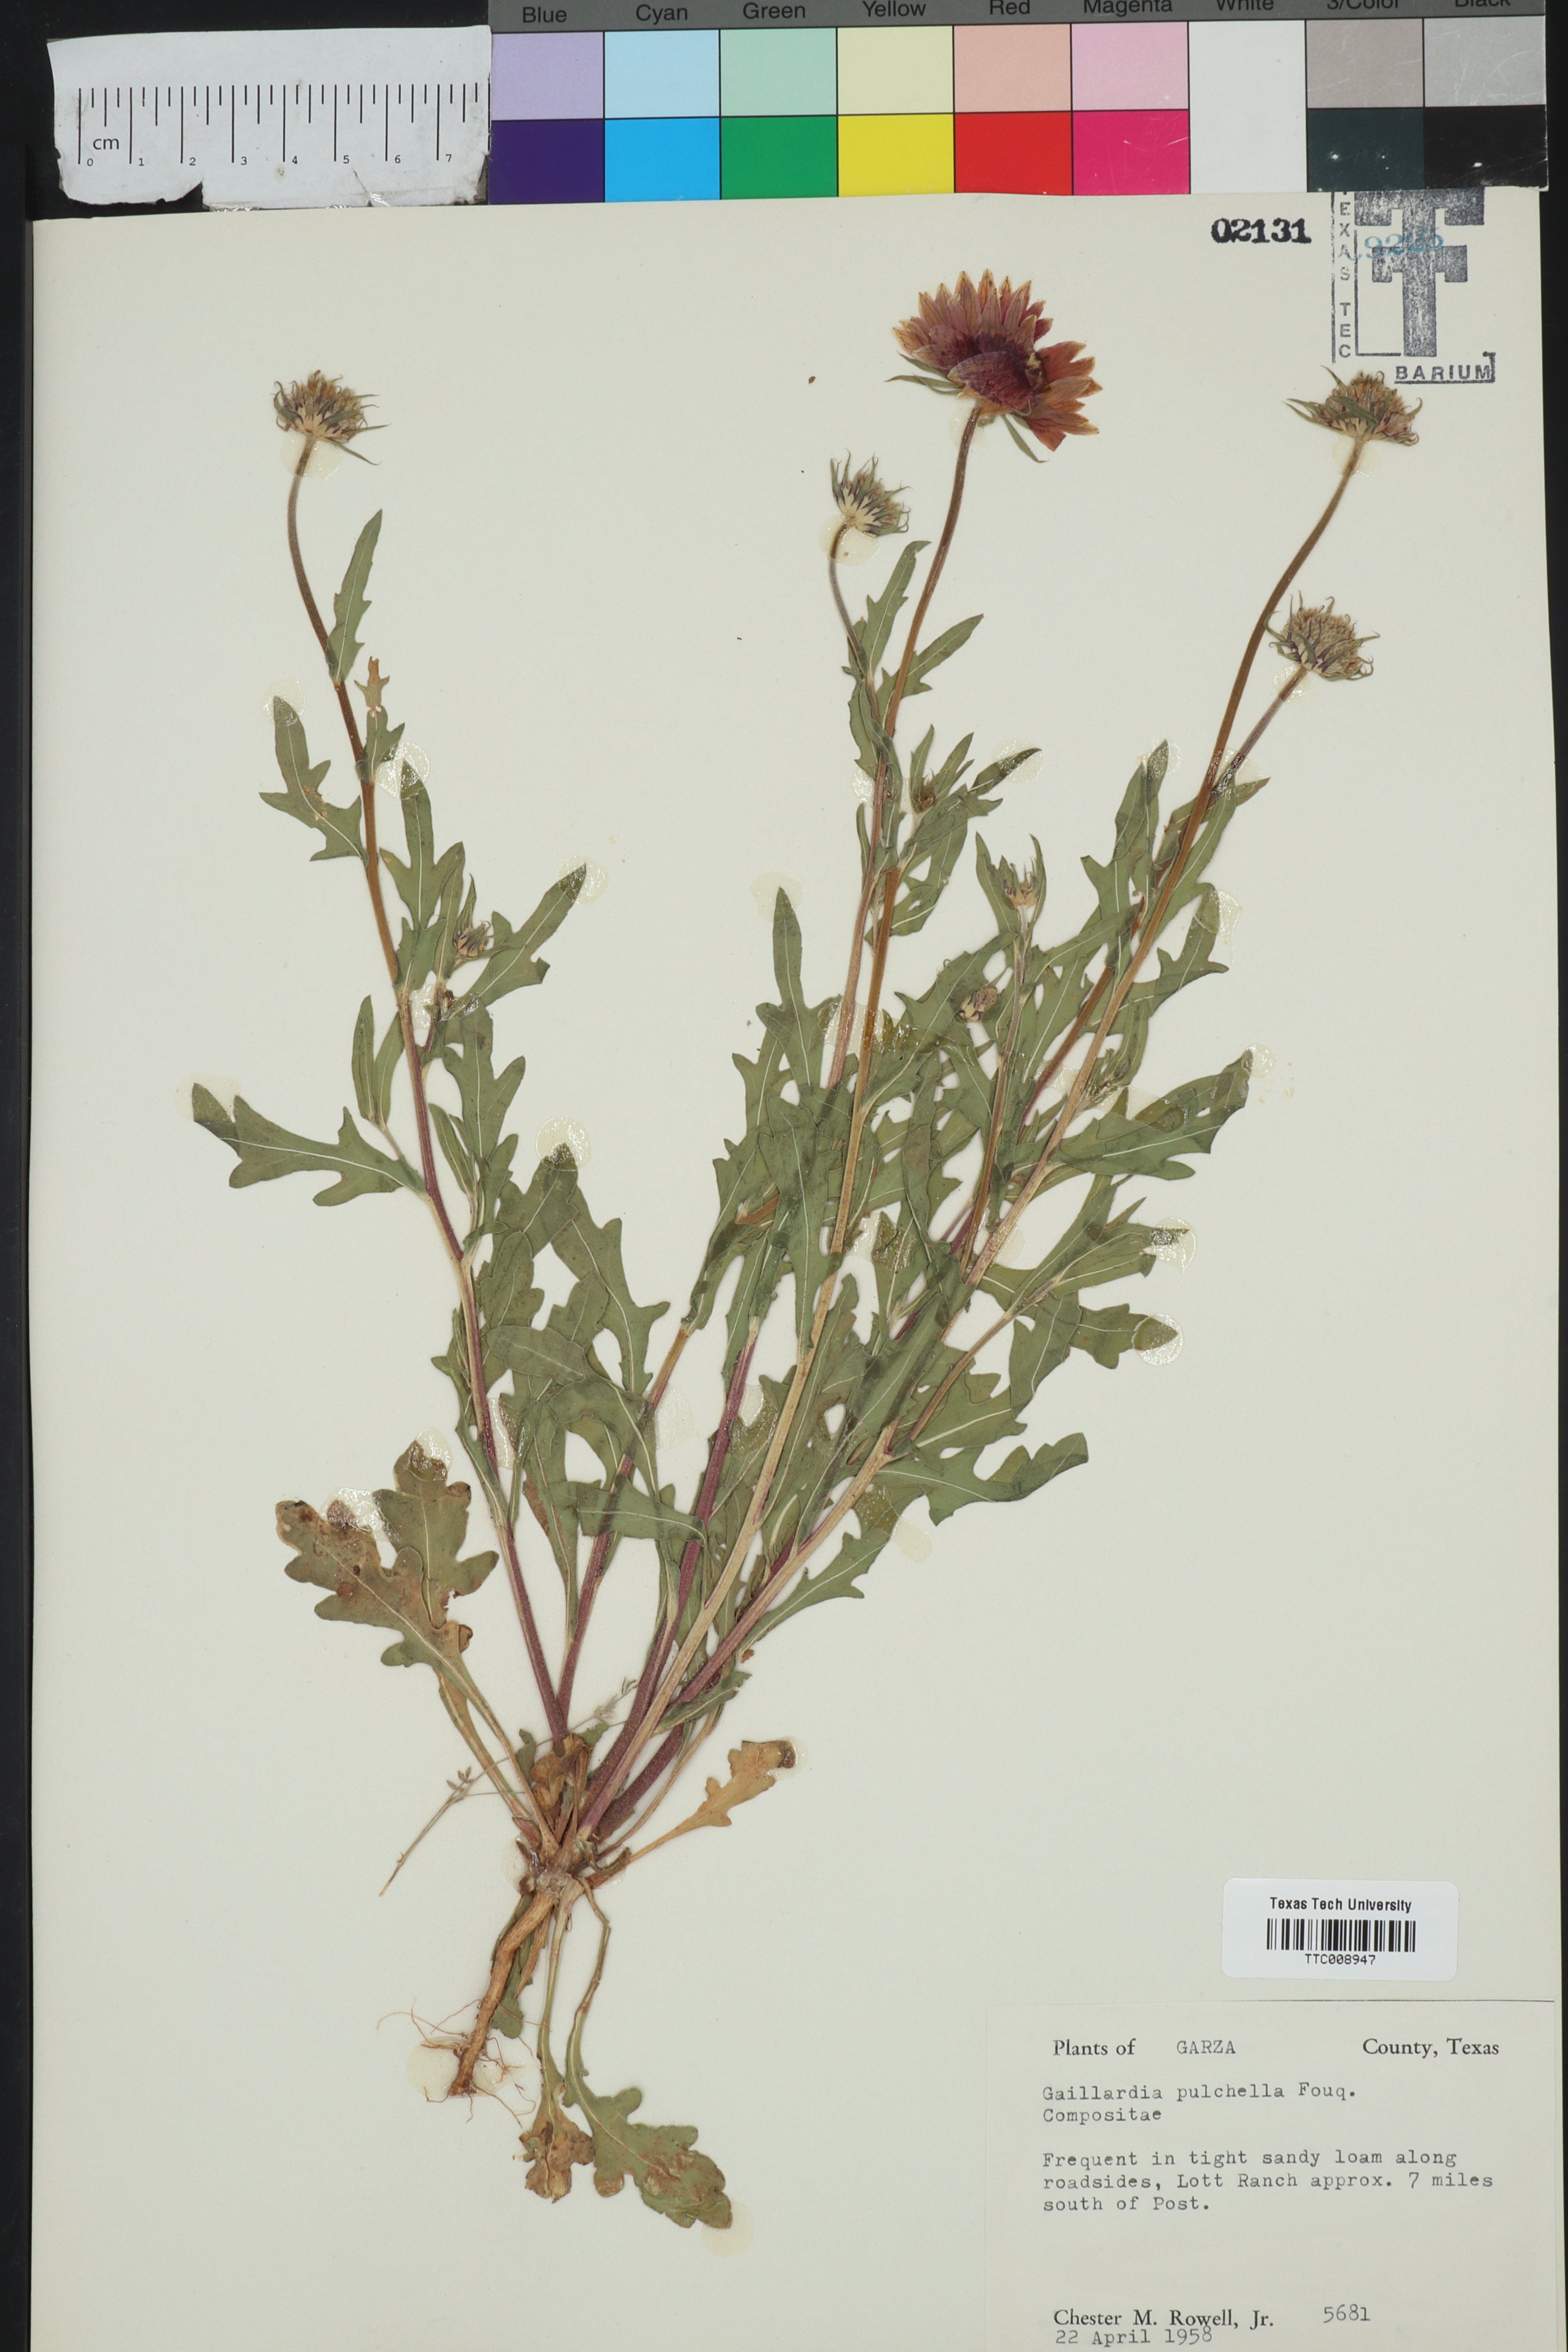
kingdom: Plantae
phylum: Tracheophyta
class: Magnoliopsida
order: Asterales
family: Asteraceae
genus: Gaillardia
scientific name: Gaillardia pulchella
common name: Firewheel
